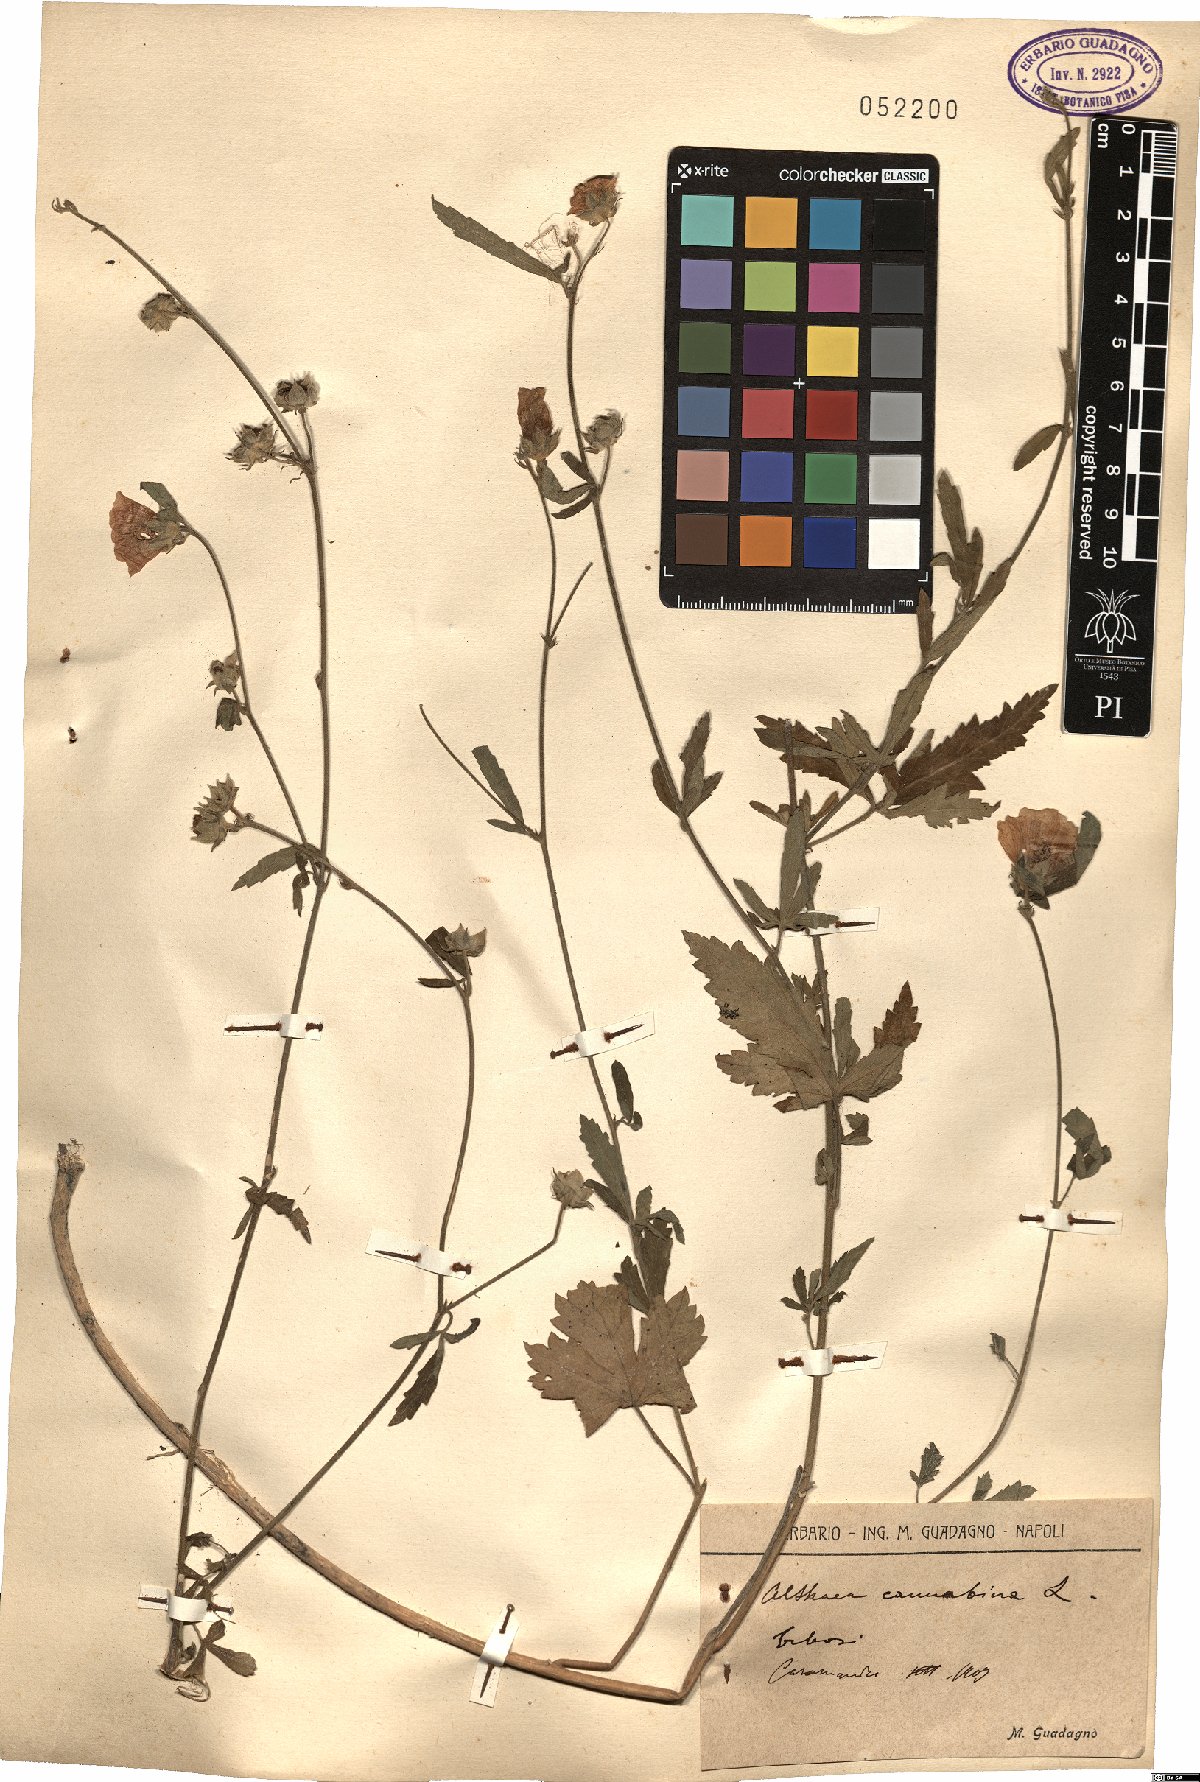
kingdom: Plantae
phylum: Tracheophyta
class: Magnoliopsida
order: Malvales
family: Malvaceae
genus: Althaea
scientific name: Althaea cannabina
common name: Palm-leaf marshmallow
